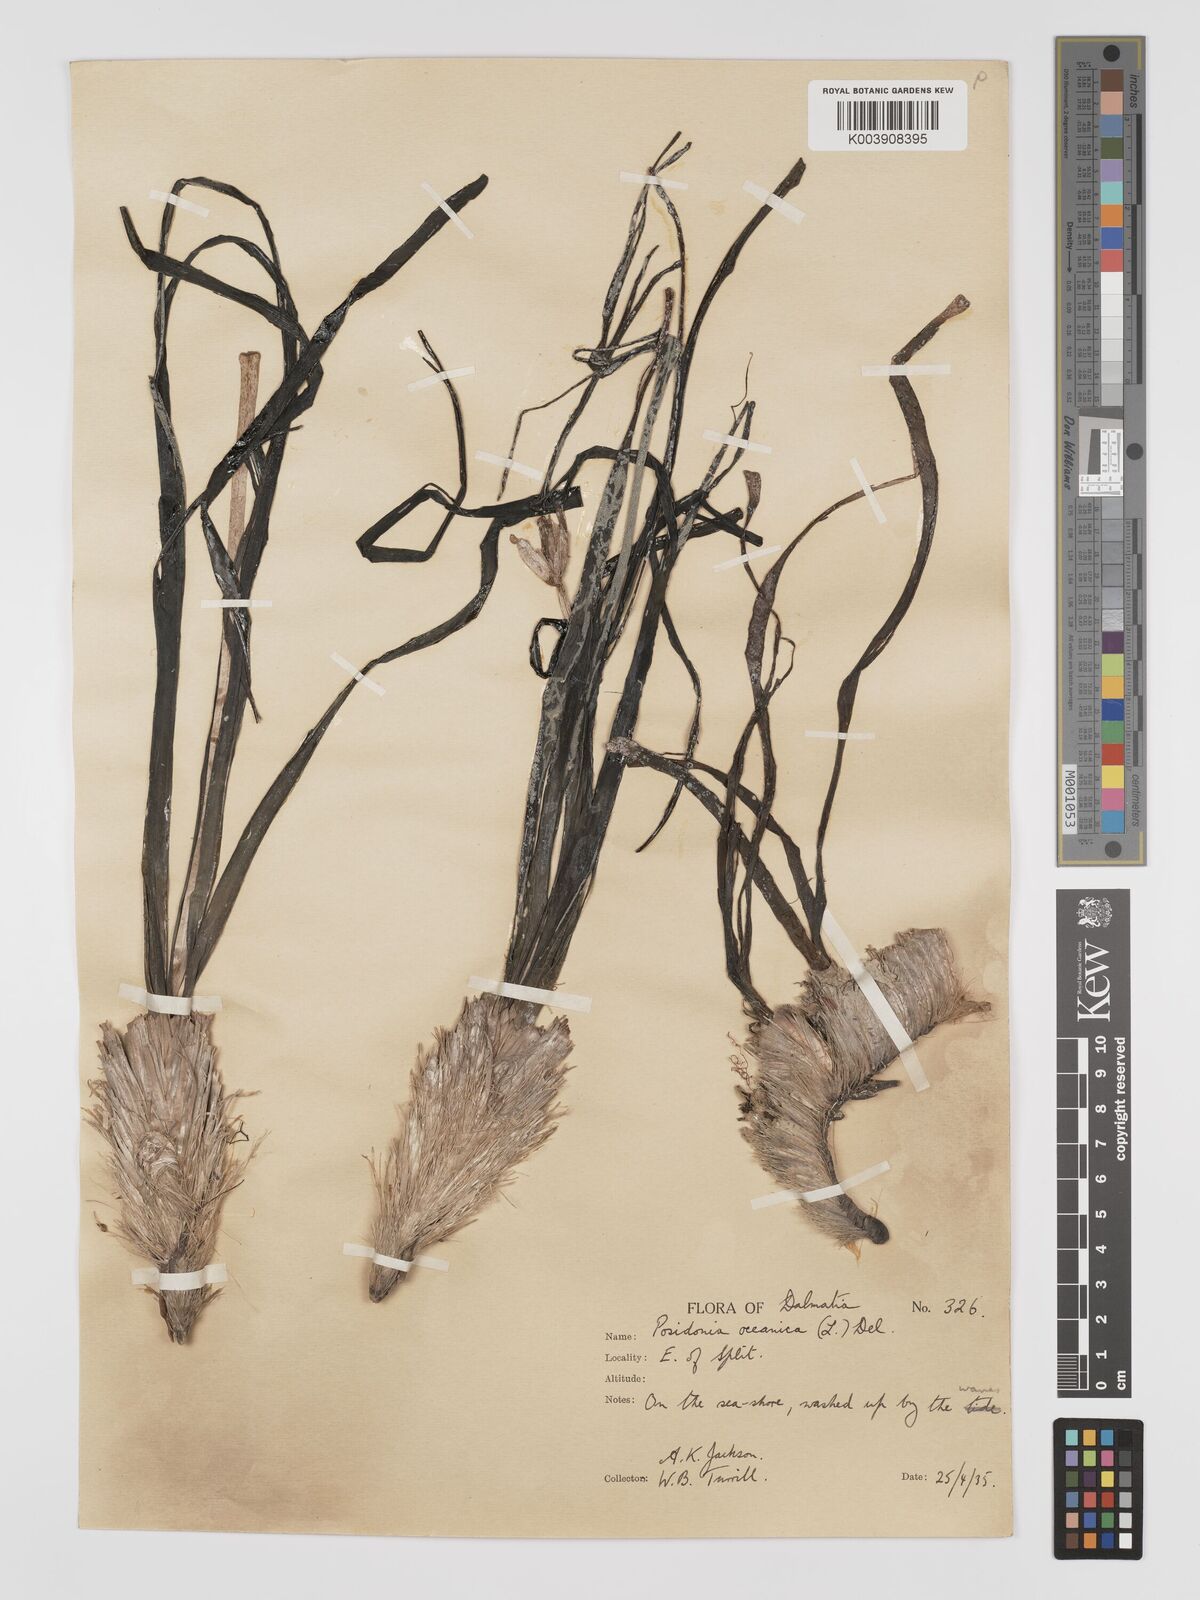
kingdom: Plantae
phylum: Tracheophyta
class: Liliopsida
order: Alismatales
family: Posidoniaceae
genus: Posidonia
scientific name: Posidonia
